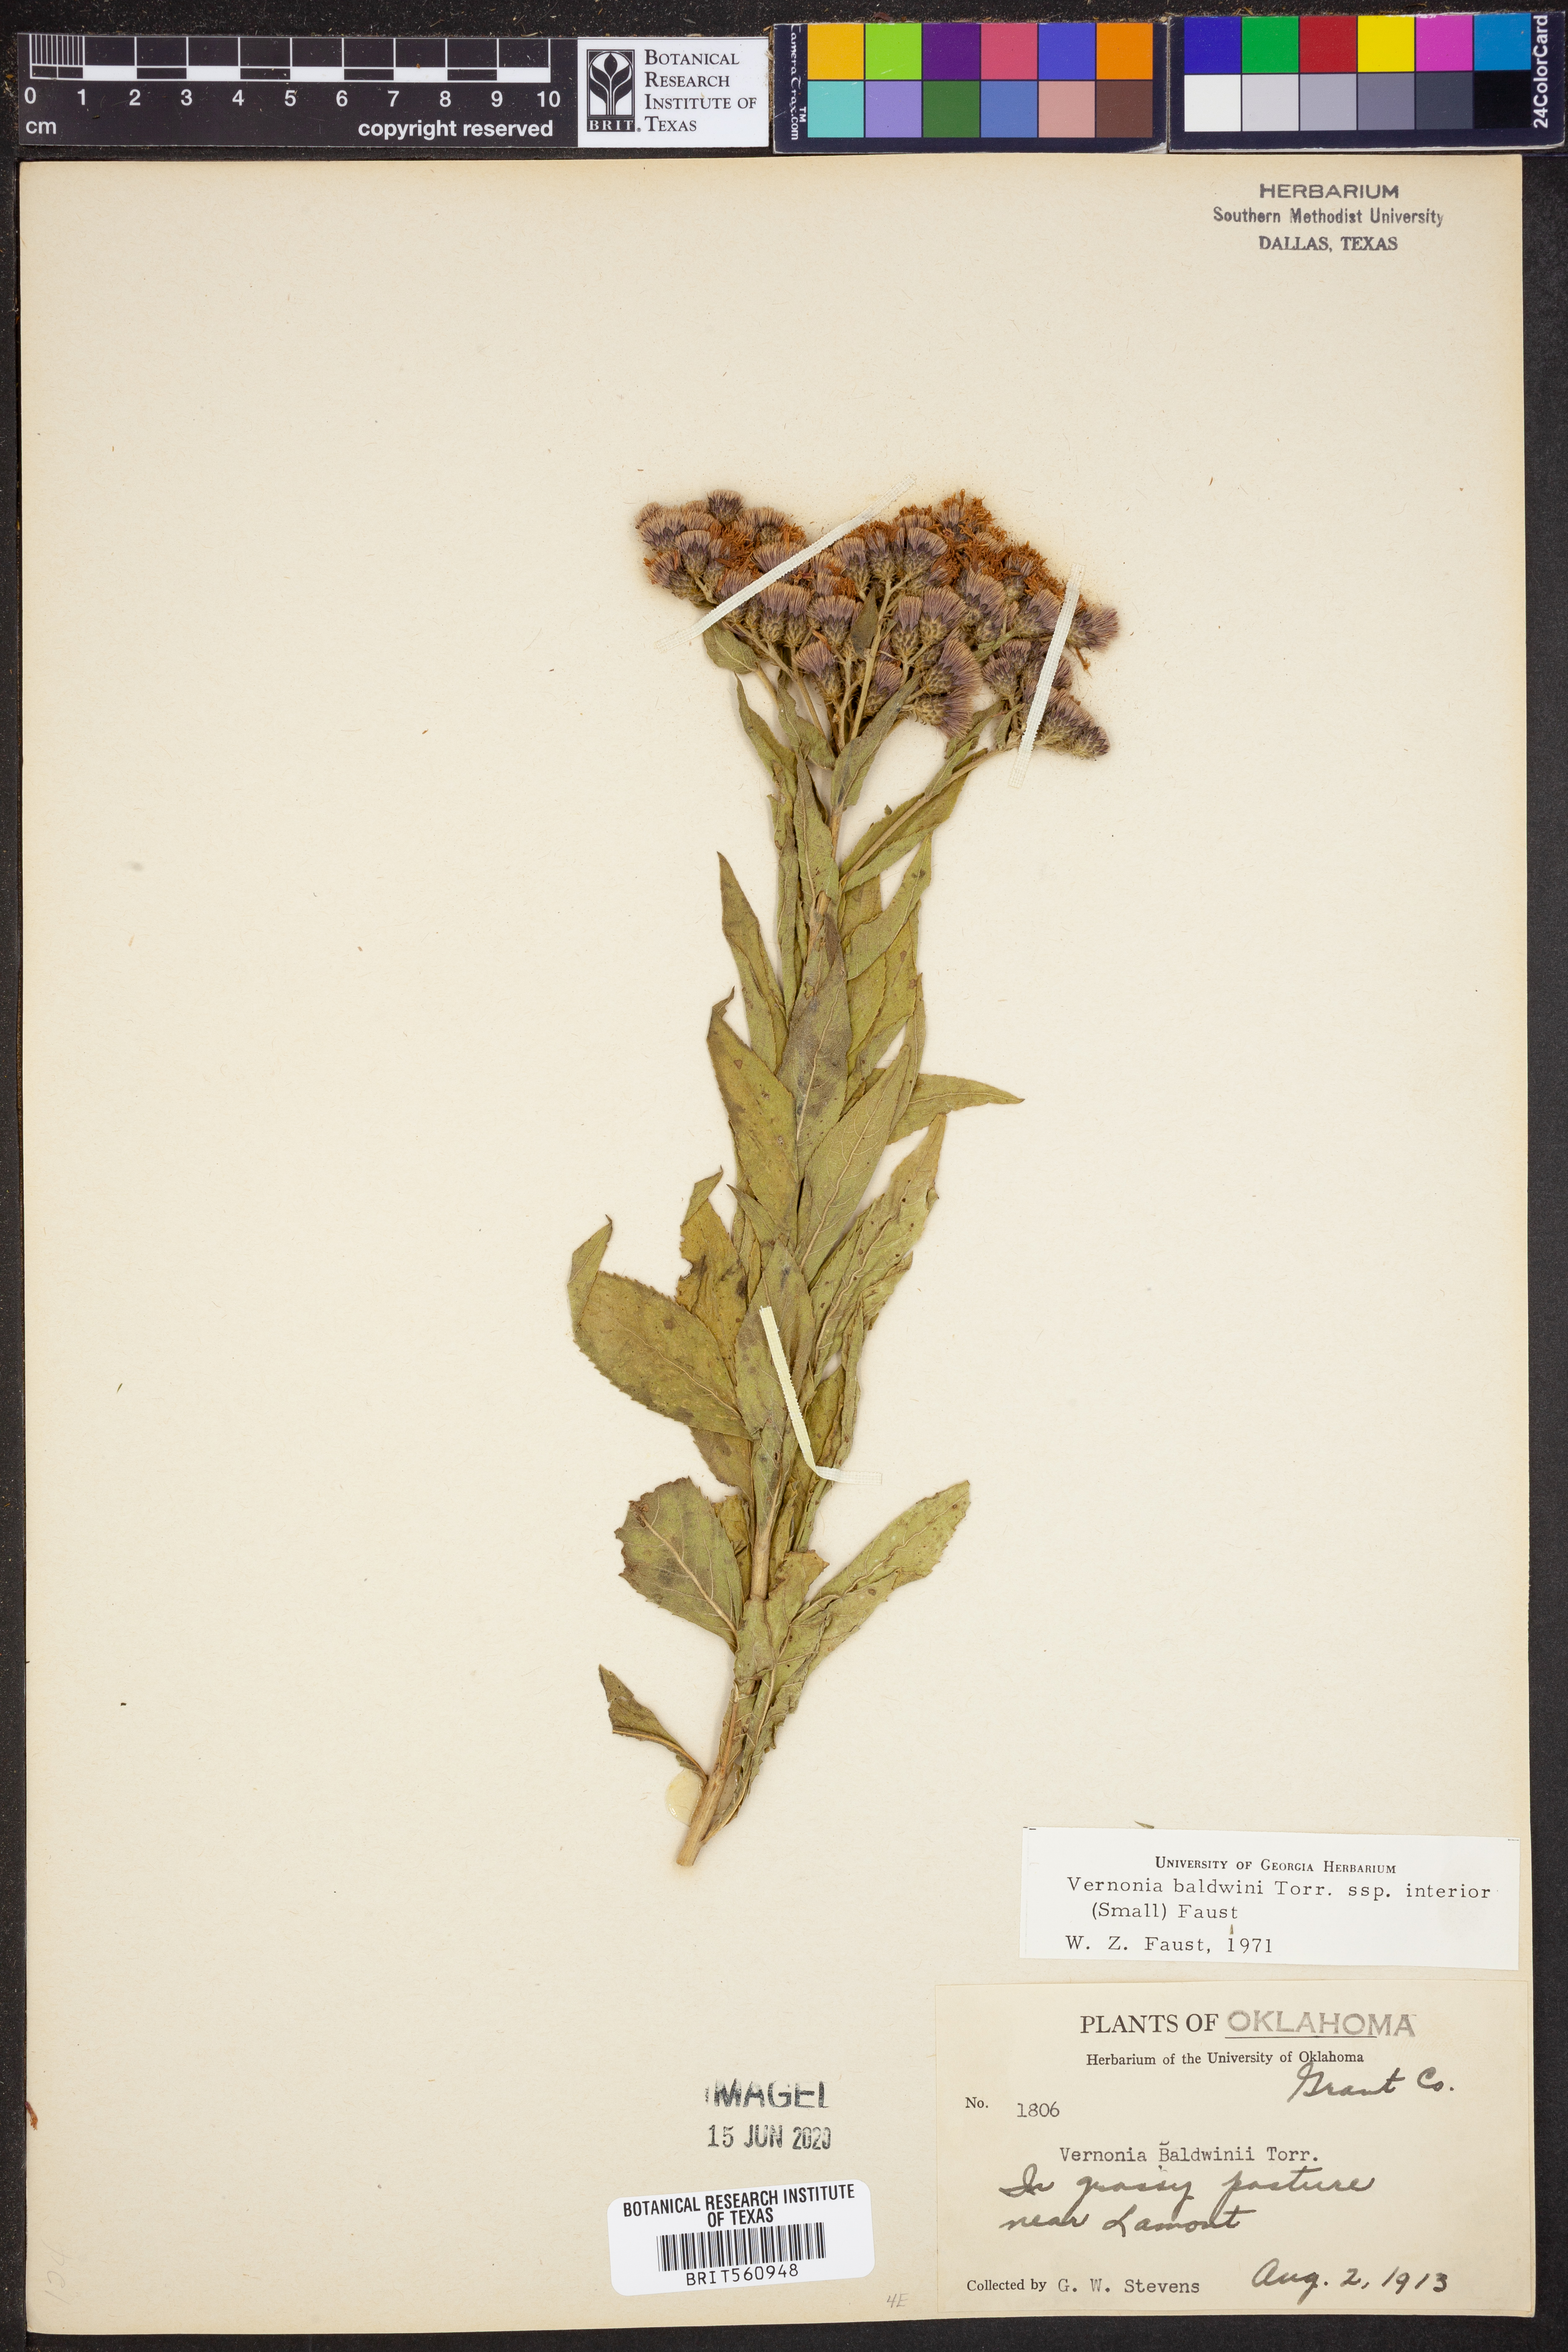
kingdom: Plantae
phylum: Tracheophyta
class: Magnoliopsida
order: Asterales
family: Asteraceae
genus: Vernonia
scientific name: Vernonia baldwinii
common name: Western ironweed
